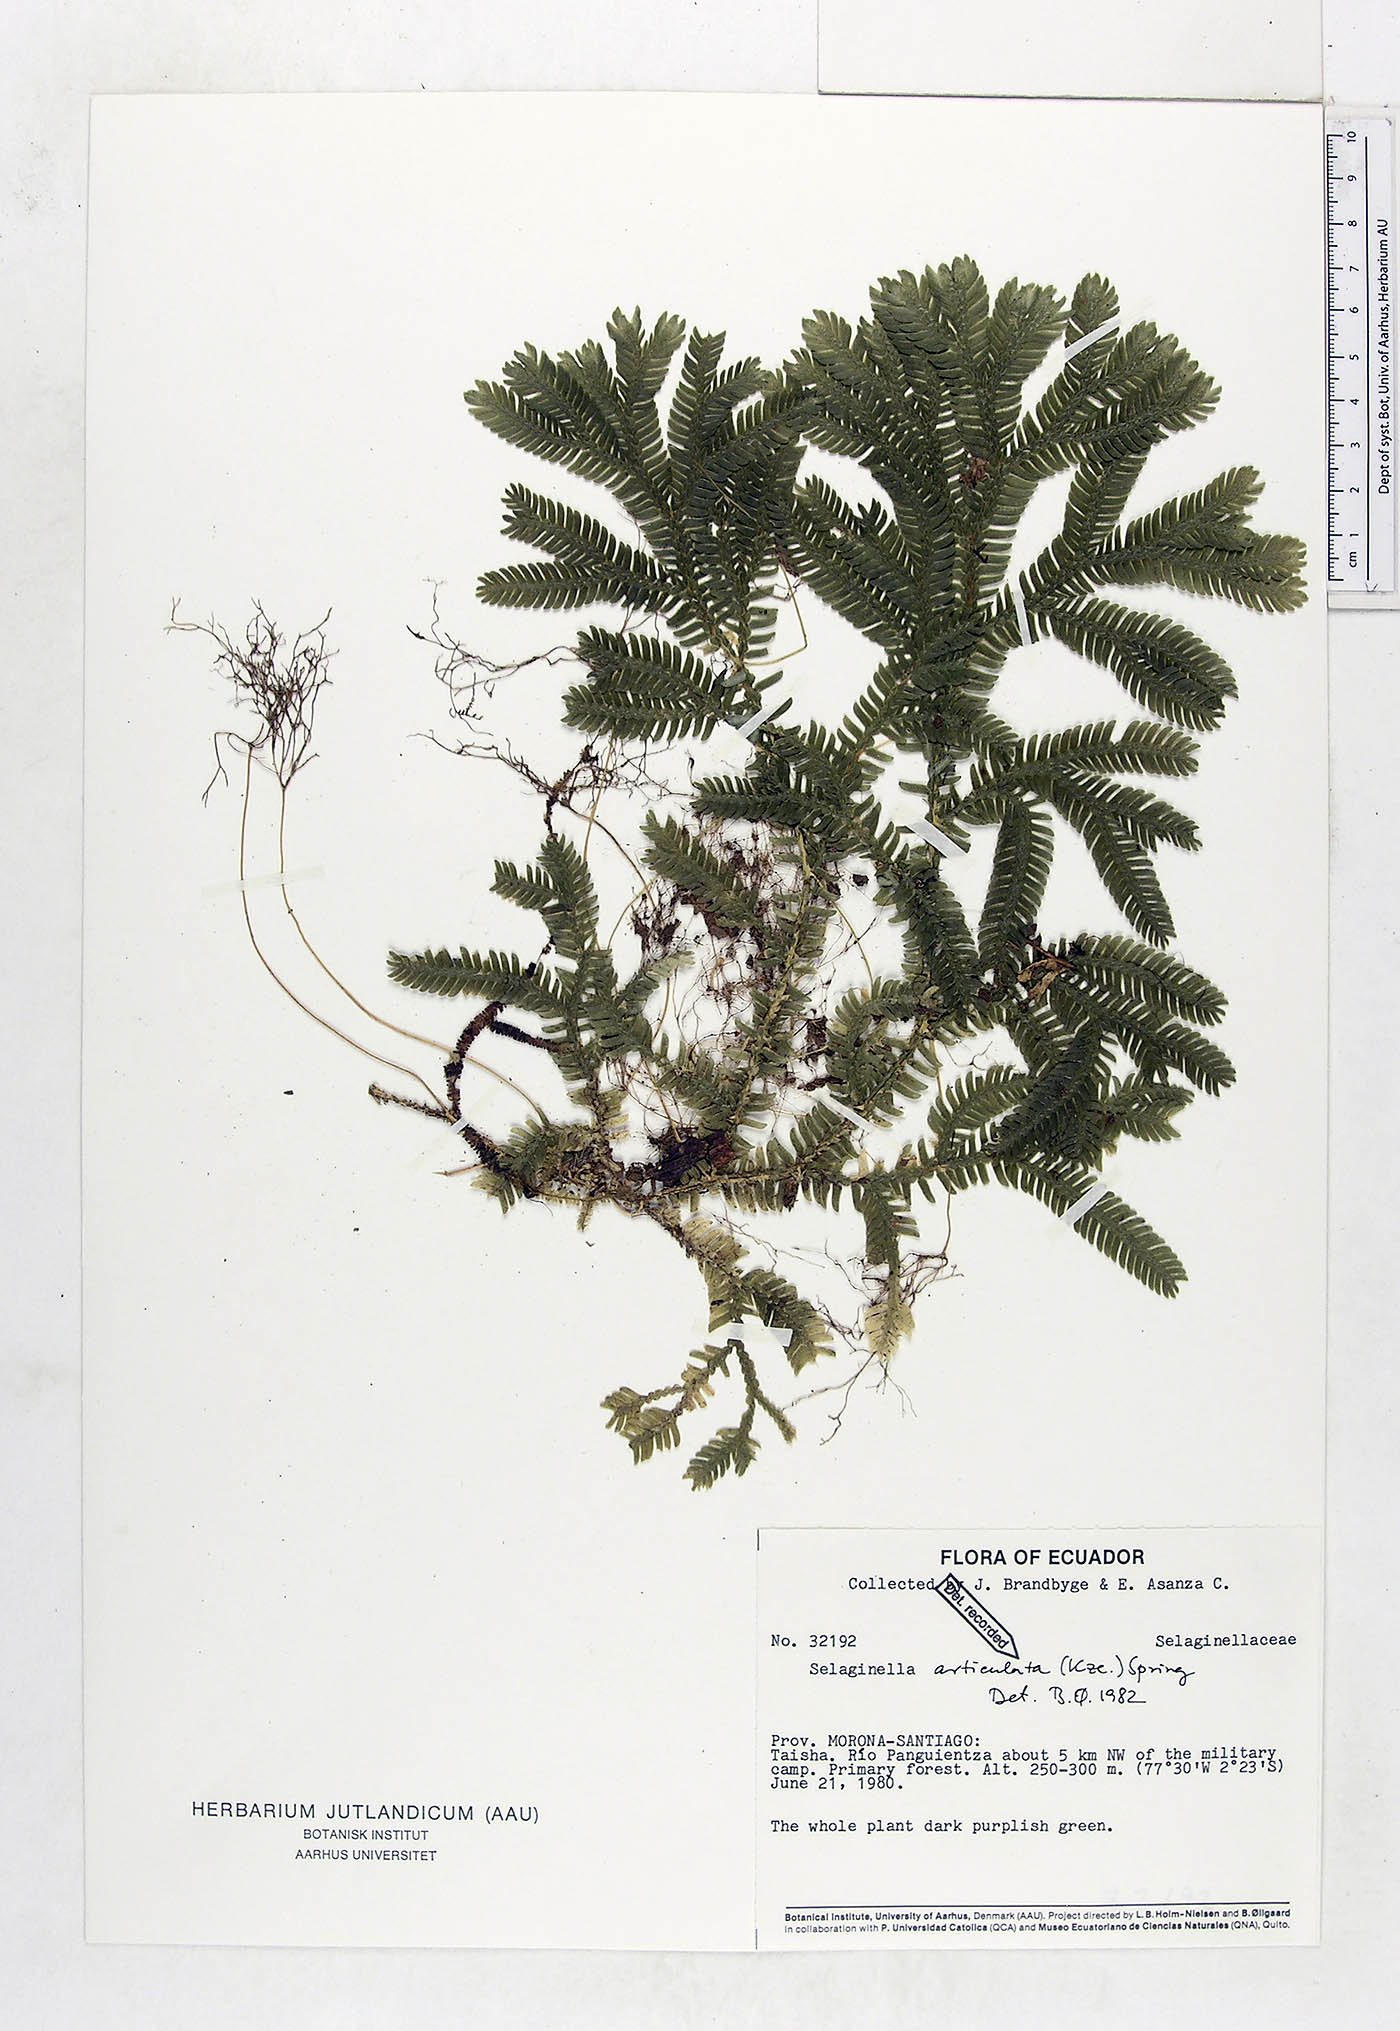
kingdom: Plantae
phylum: Tracheophyta
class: Lycopodiopsida
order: Selaginellales
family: Selaginellaceae
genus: Selaginella
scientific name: Selaginella articulata
